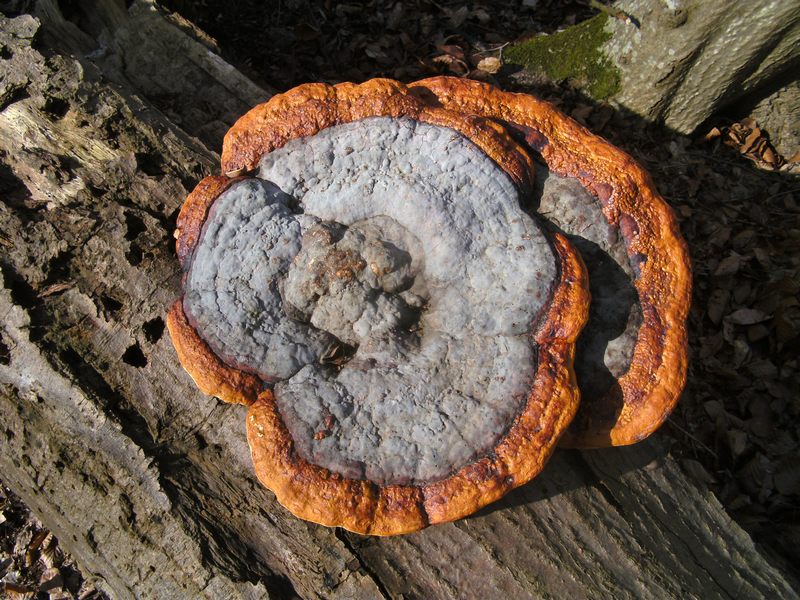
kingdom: Fungi
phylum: Basidiomycota
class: Agaricomycetes
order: Polyporales
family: Fomitopsidaceae
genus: Fomitopsis
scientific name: Fomitopsis pinicola
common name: randbæltet hovporesvamp
